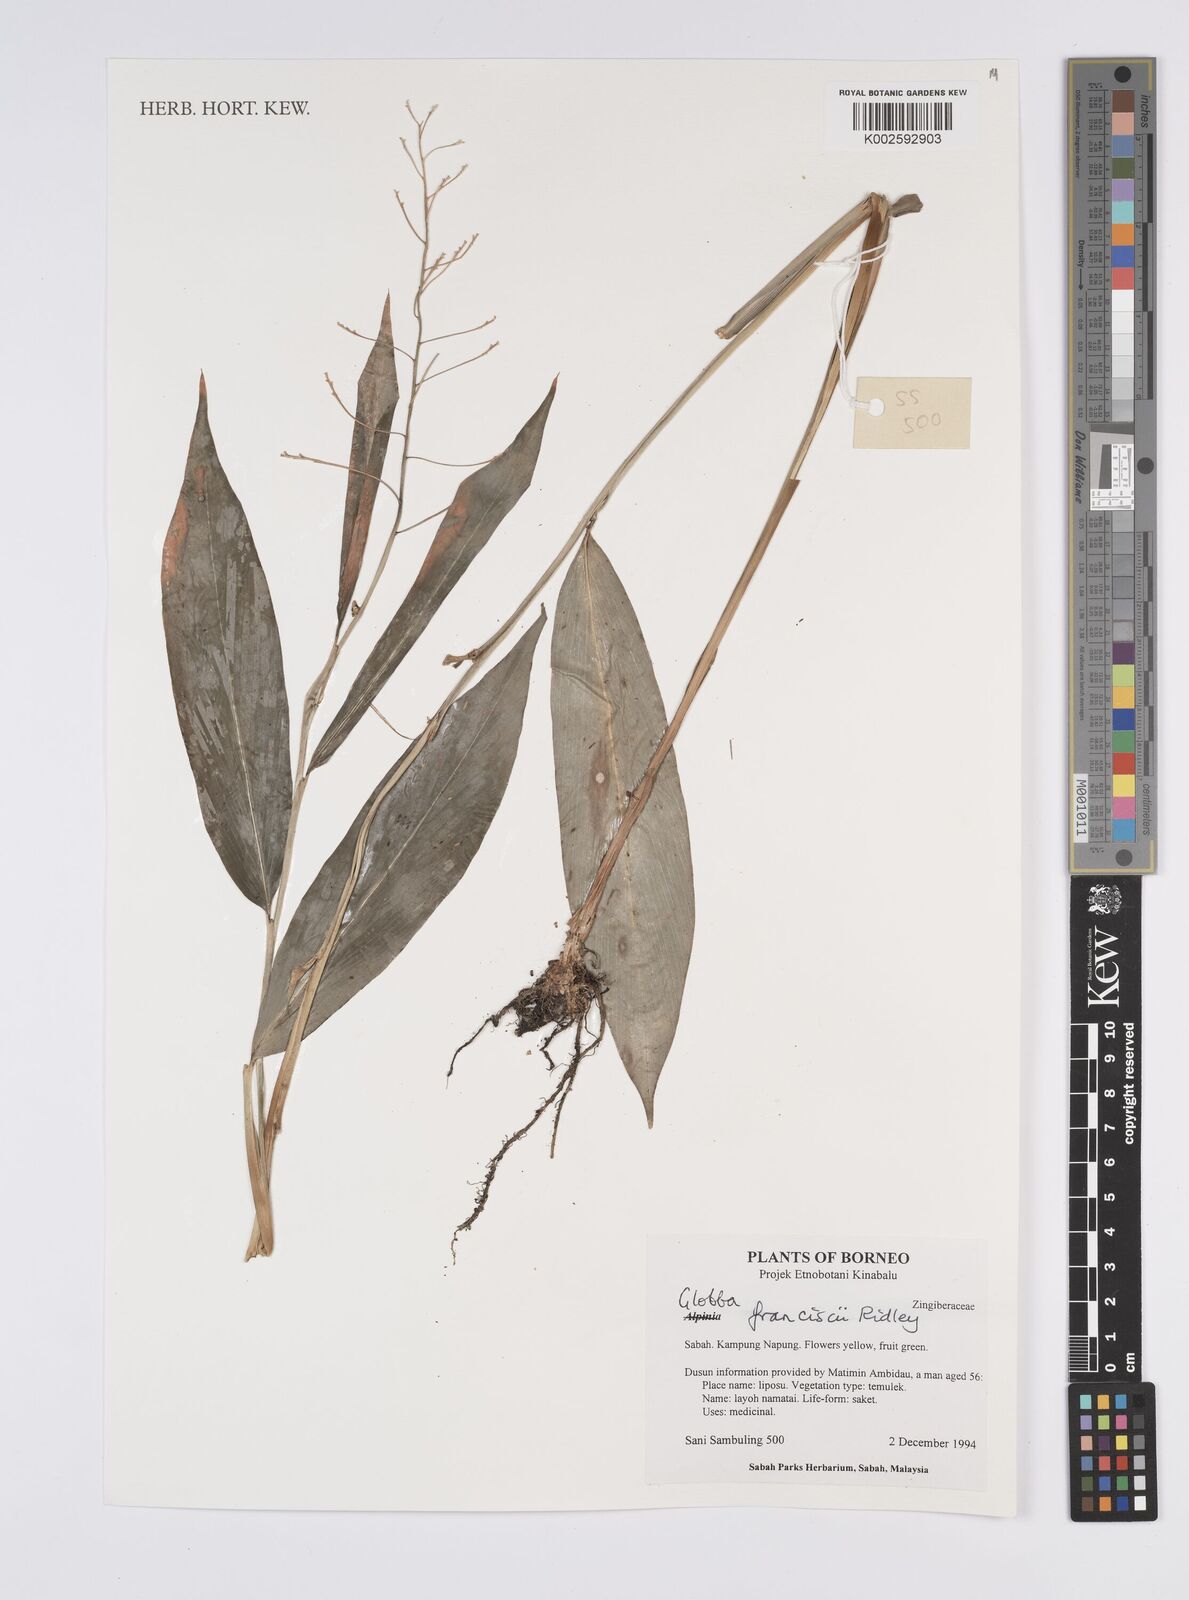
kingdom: Plantae
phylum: Tracheophyta
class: Liliopsida
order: Zingiberales
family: Zingiberaceae
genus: Globba
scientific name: Globba francisci
